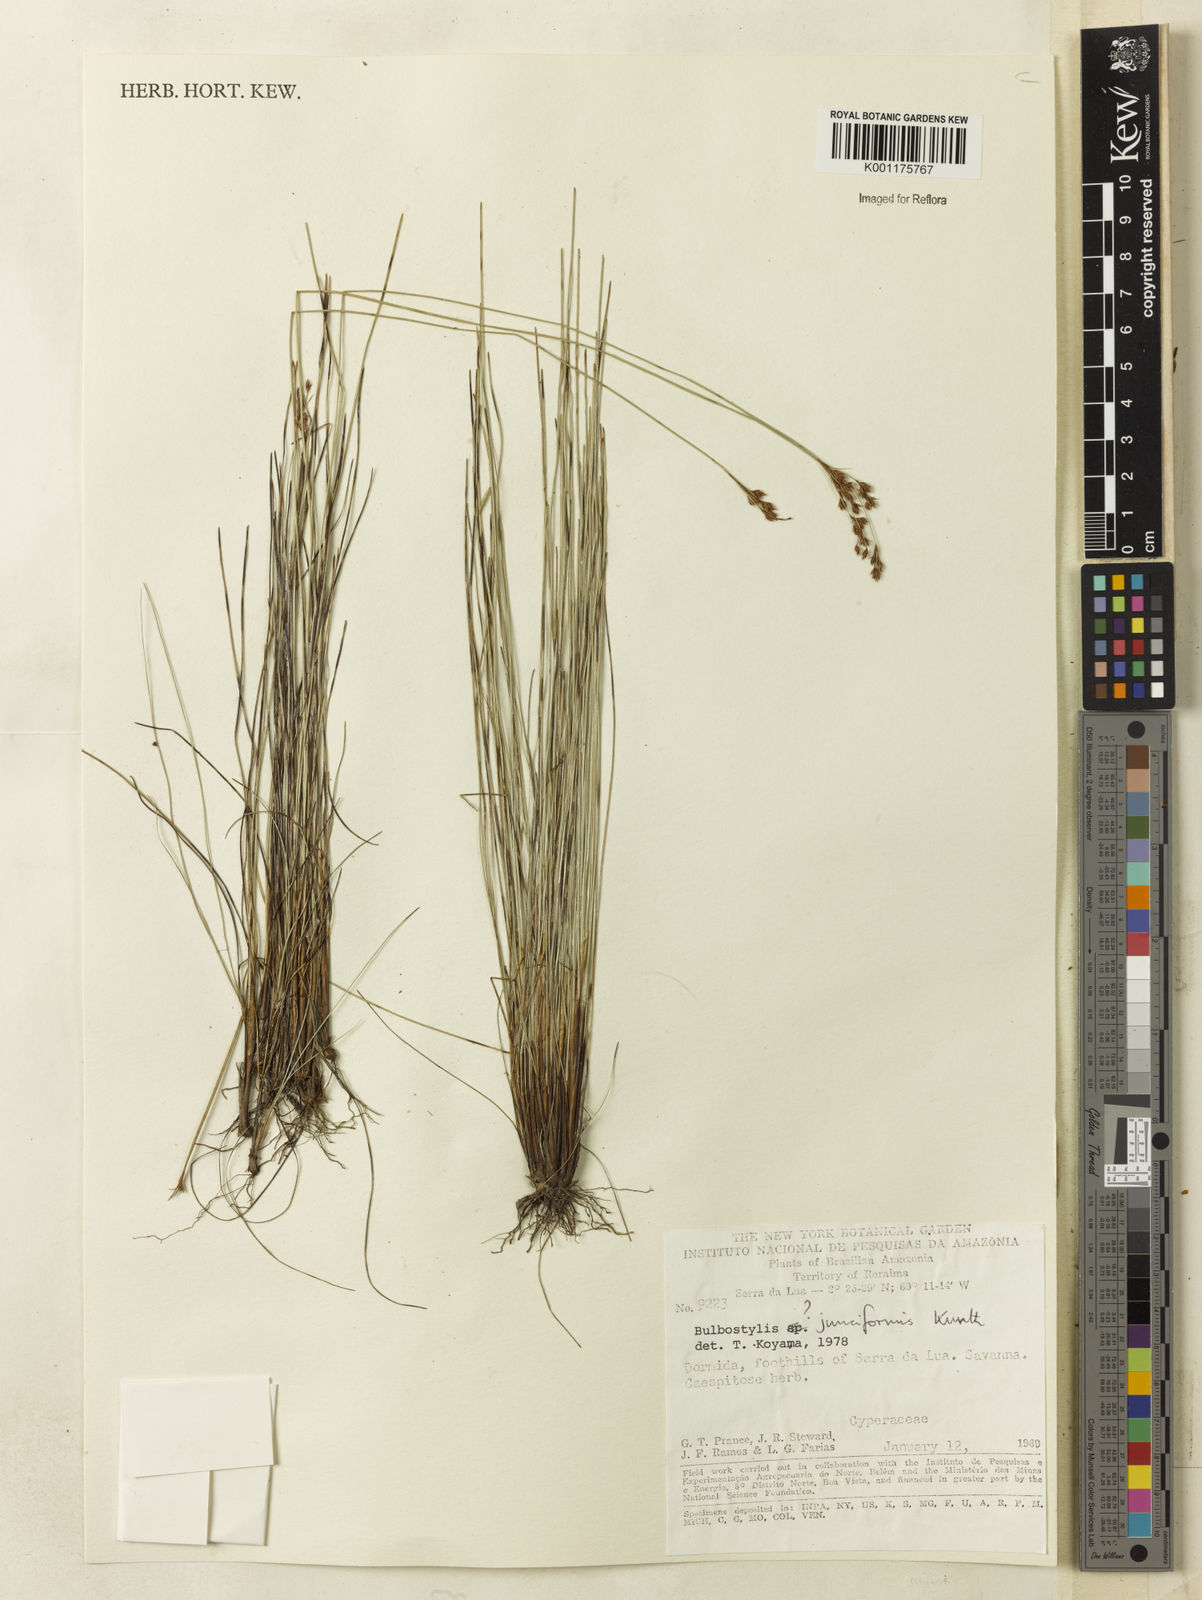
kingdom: Plantae
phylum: Tracheophyta
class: Liliopsida
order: Poales
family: Cyperaceae
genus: Bulbostylis
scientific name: Bulbostylis junciformis
